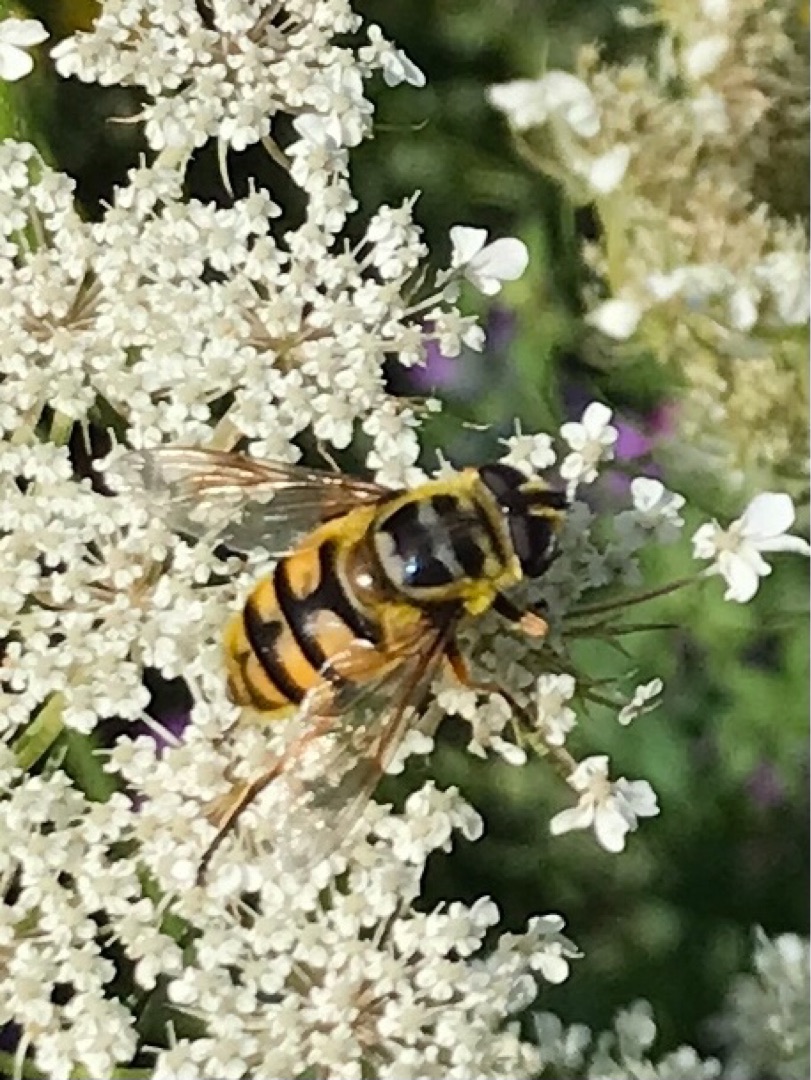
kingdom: Animalia
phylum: Arthropoda
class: Insecta
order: Diptera
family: Syrphidae
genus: Myathropa
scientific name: Myathropa florea
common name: Dødningehoved-svirreflue
